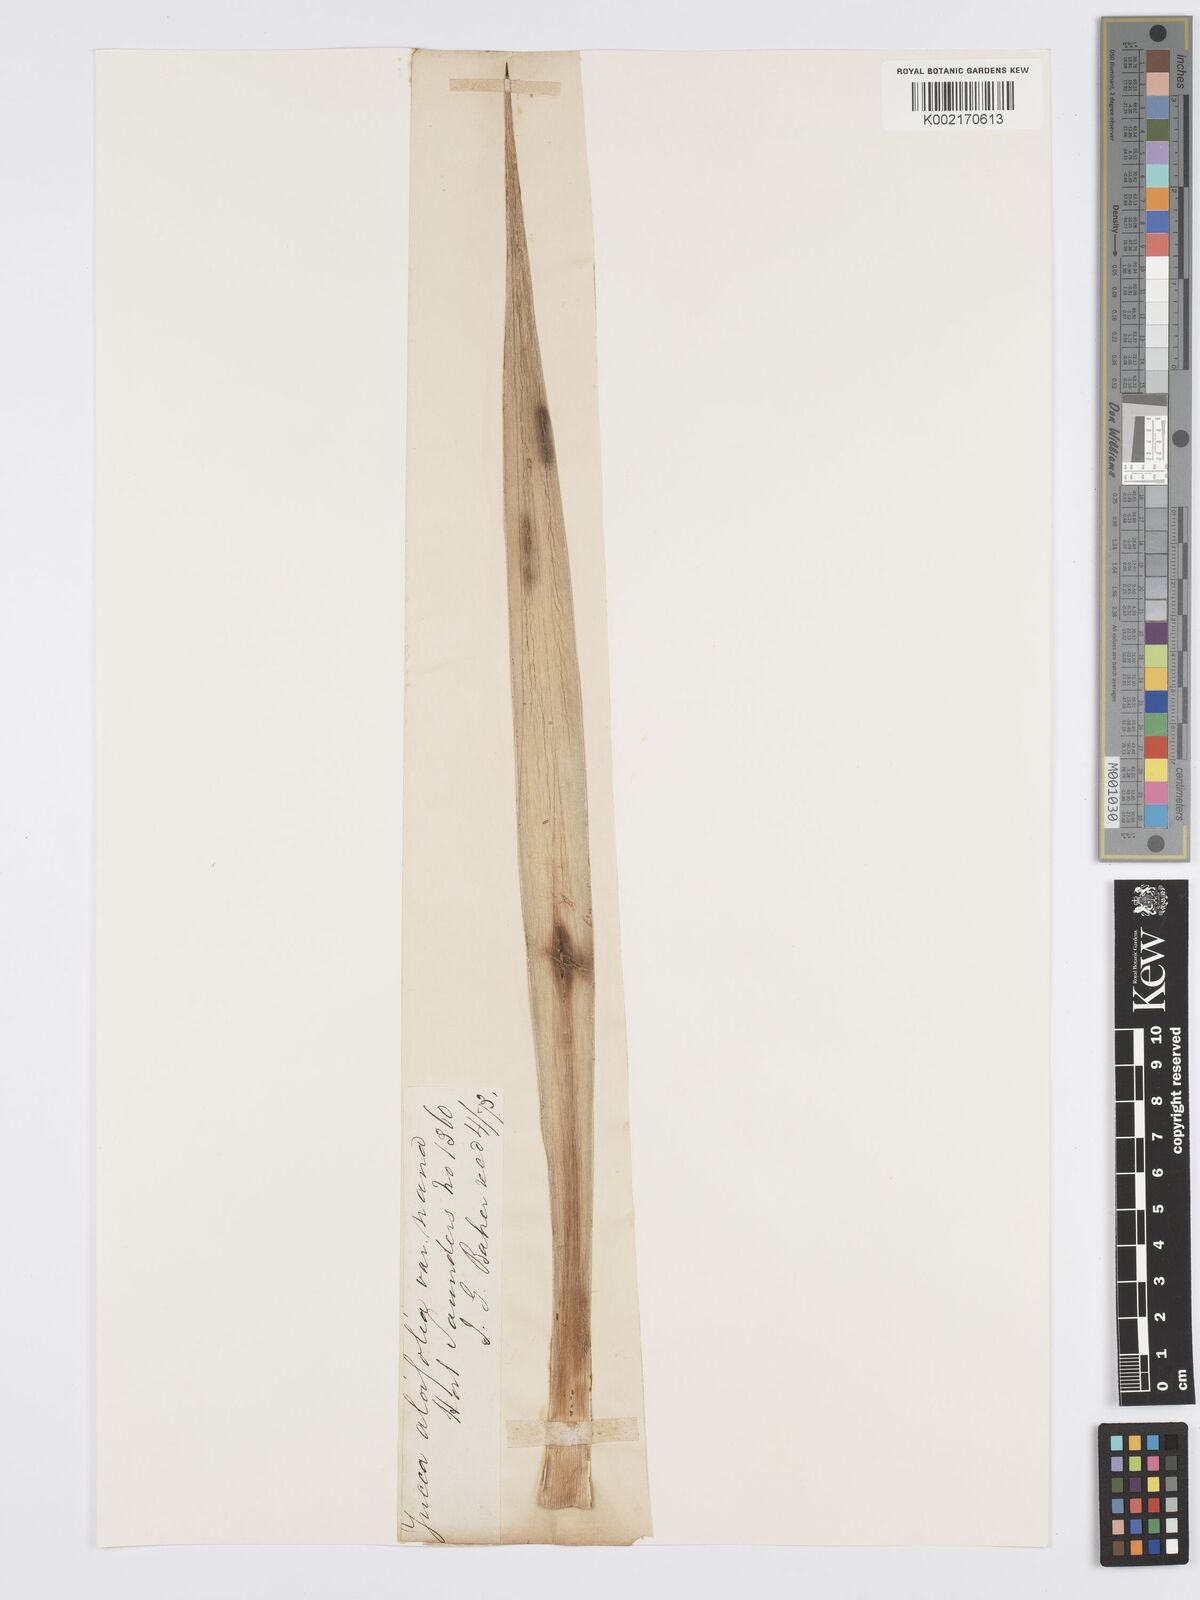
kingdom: Plantae
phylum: Tracheophyta
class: Liliopsida
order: Asparagales
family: Asparagaceae
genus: Yucca
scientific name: Yucca aloifolia
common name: Aloe yucca
